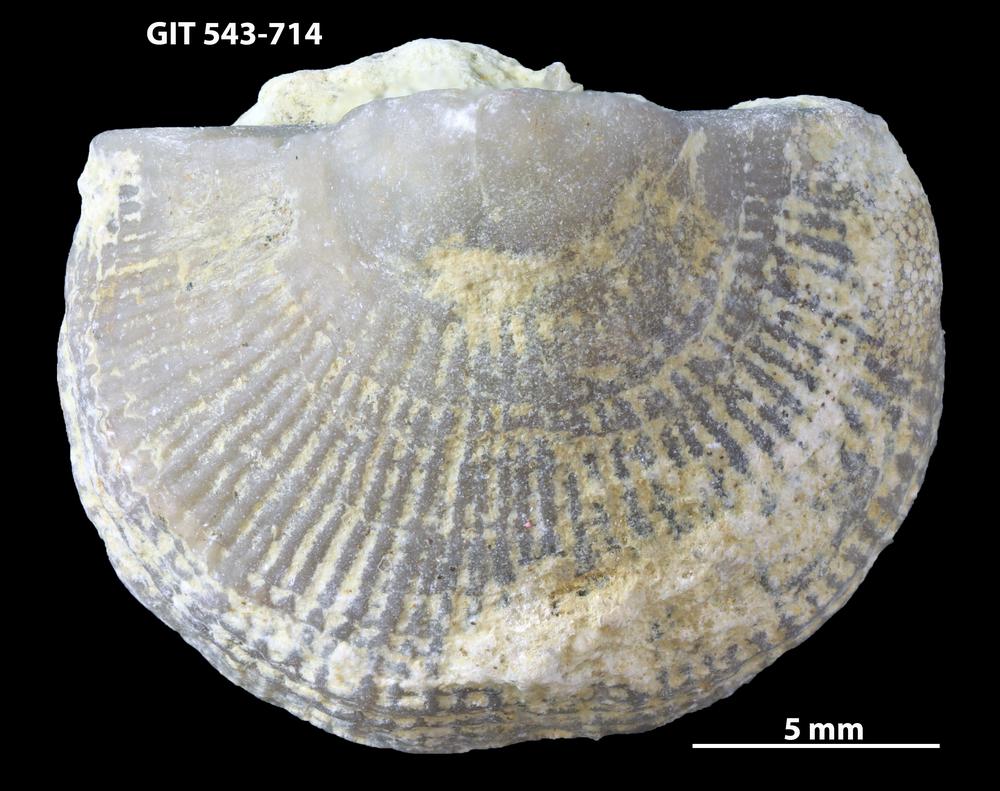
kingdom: Animalia
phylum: Brachiopoda
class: Rhynchonellata
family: Clitambonitidae
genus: Vellamo
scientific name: Vellamo oandoensis
